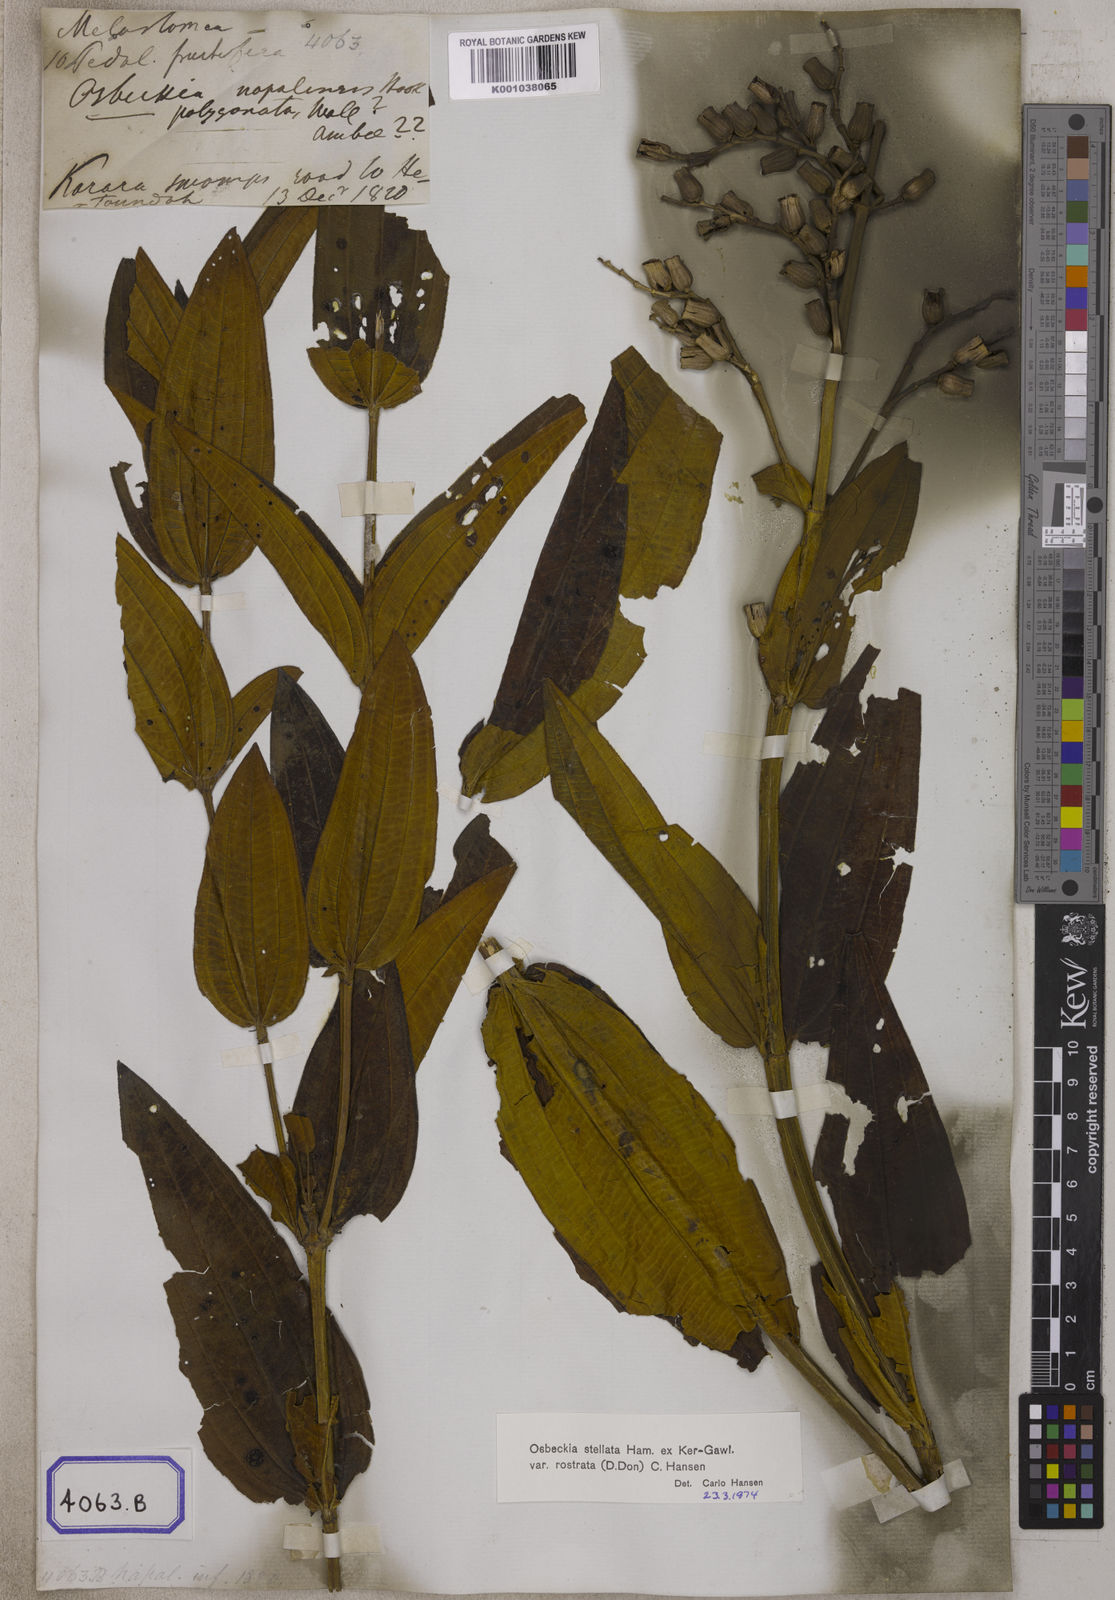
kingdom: Plantae
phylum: Tracheophyta
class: Magnoliopsida
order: Myrtales
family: Melastomataceae
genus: Osbeckia
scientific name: Osbeckia rostrata
